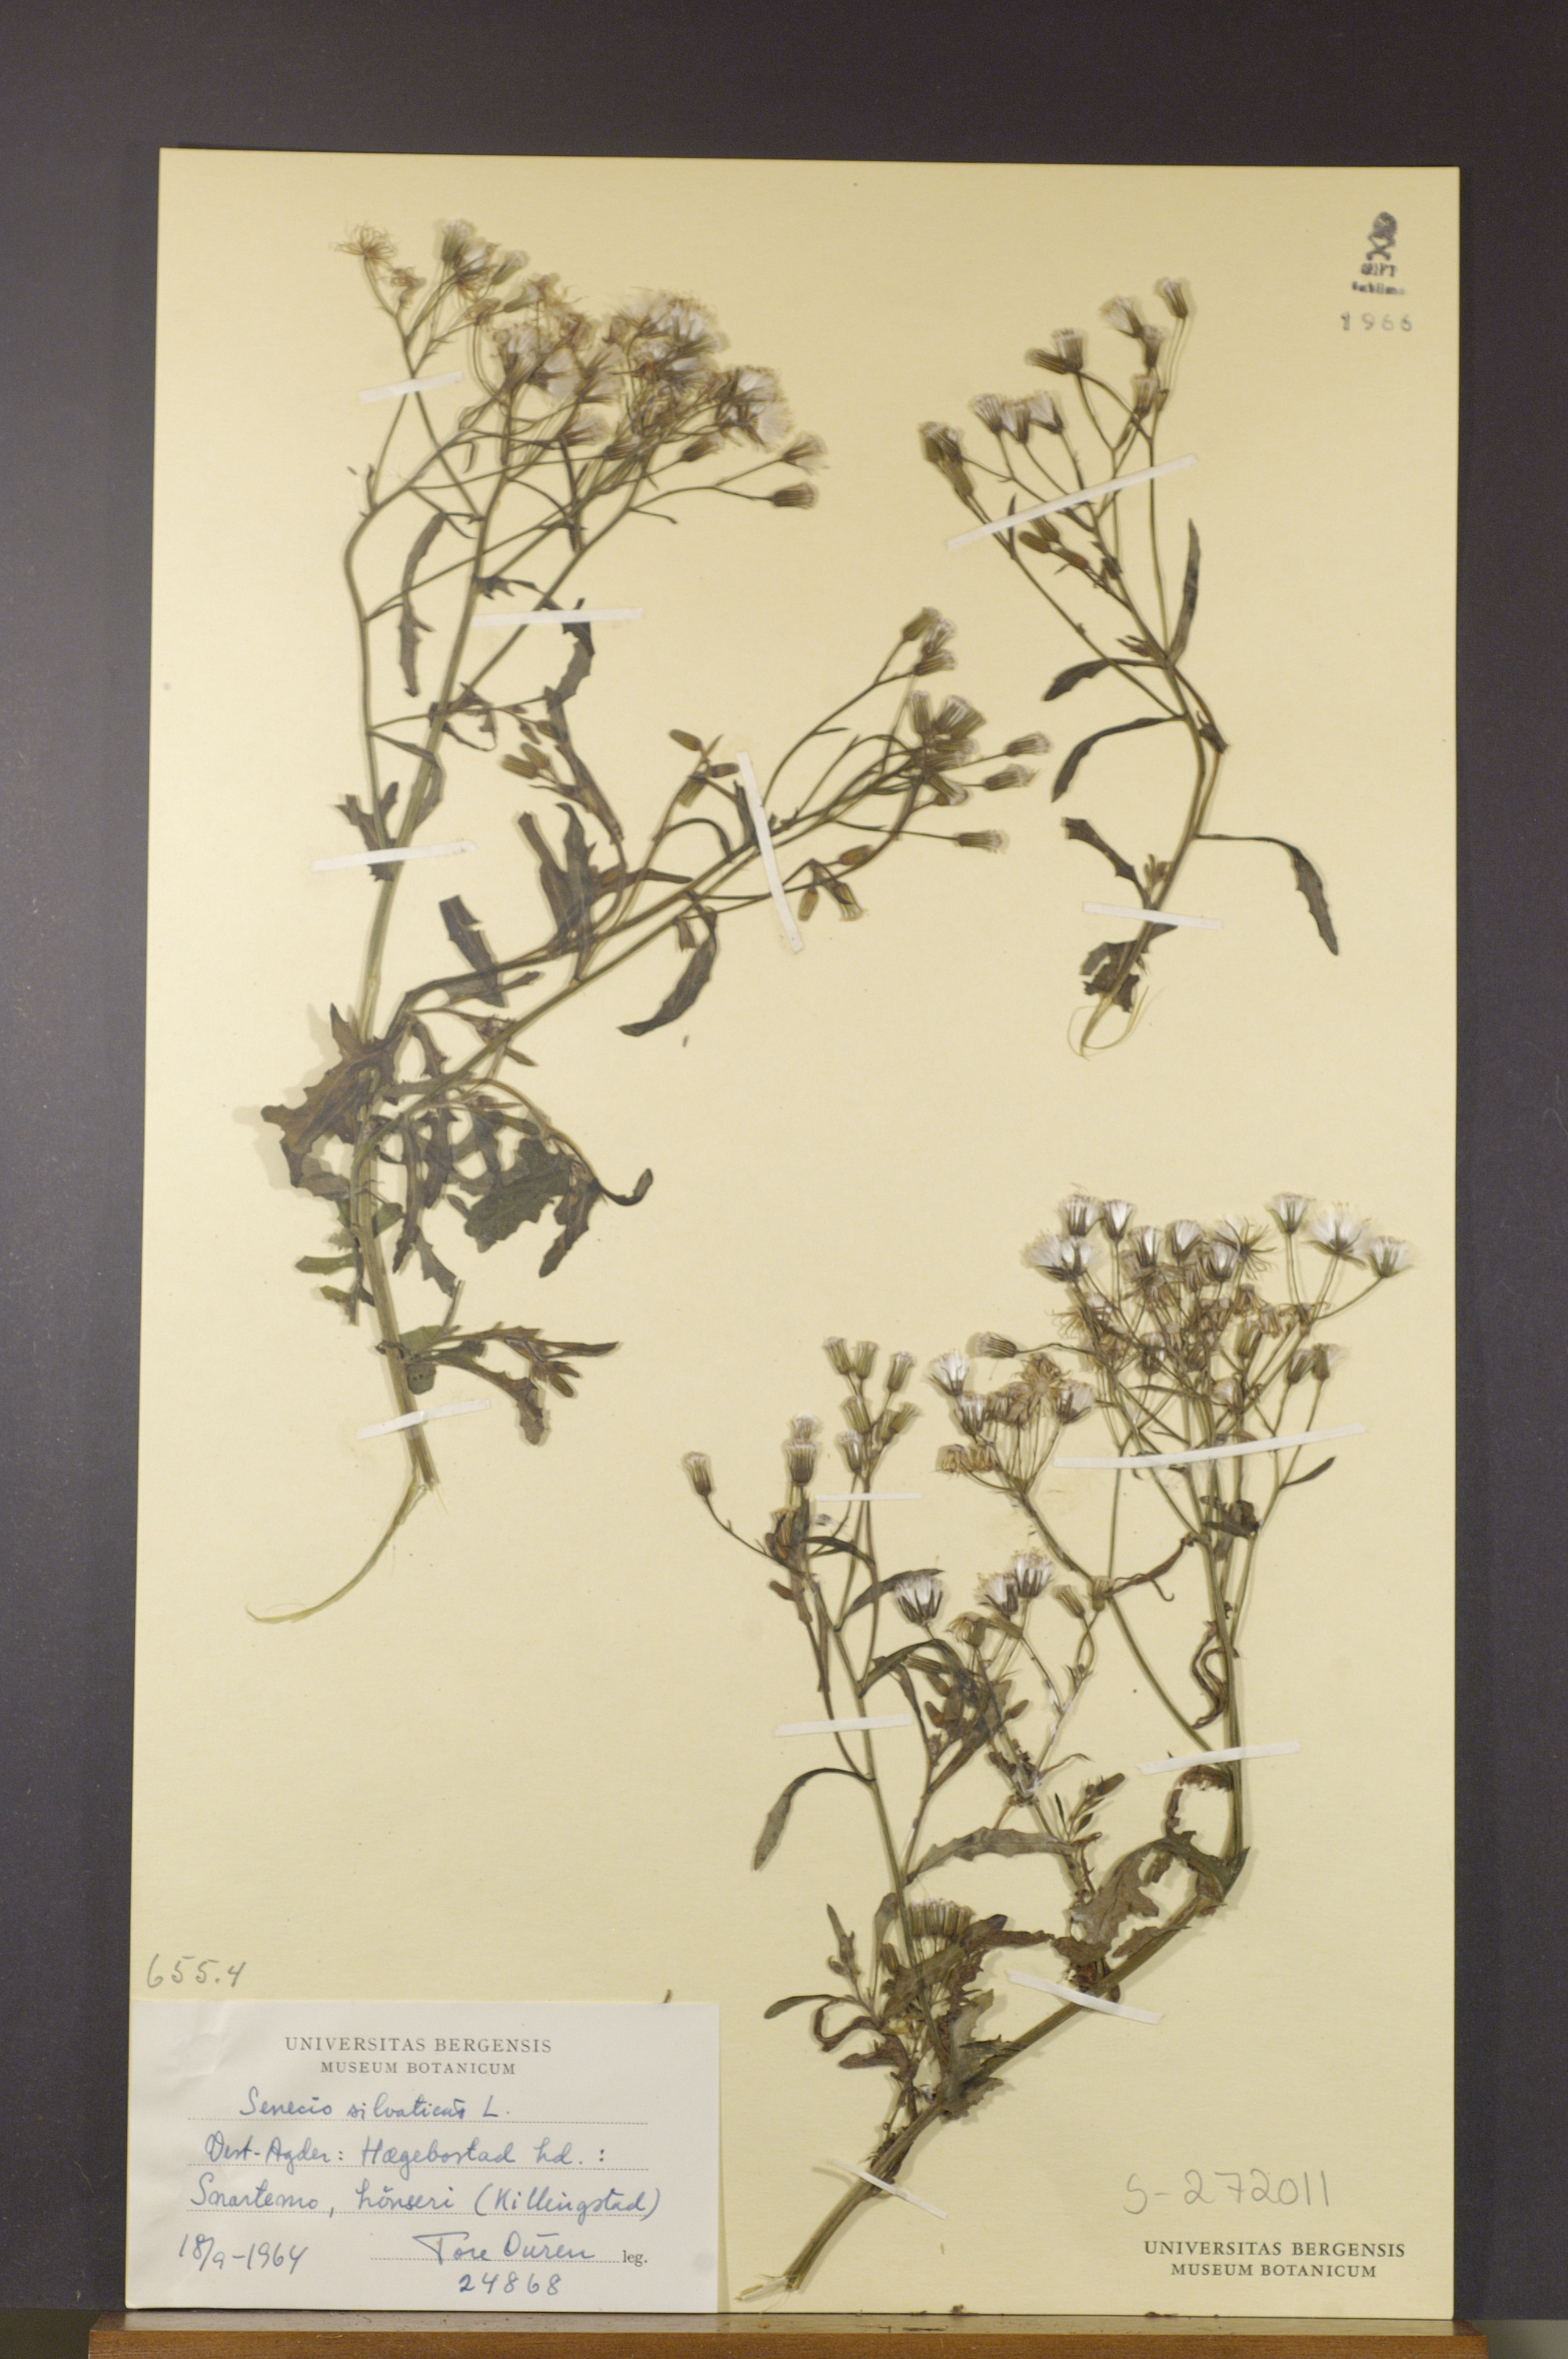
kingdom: Plantae
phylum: Tracheophyta
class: Magnoliopsida
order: Asterales
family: Asteraceae
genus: Senecio
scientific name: Senecio sylvaticus
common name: Woodland ragwort
